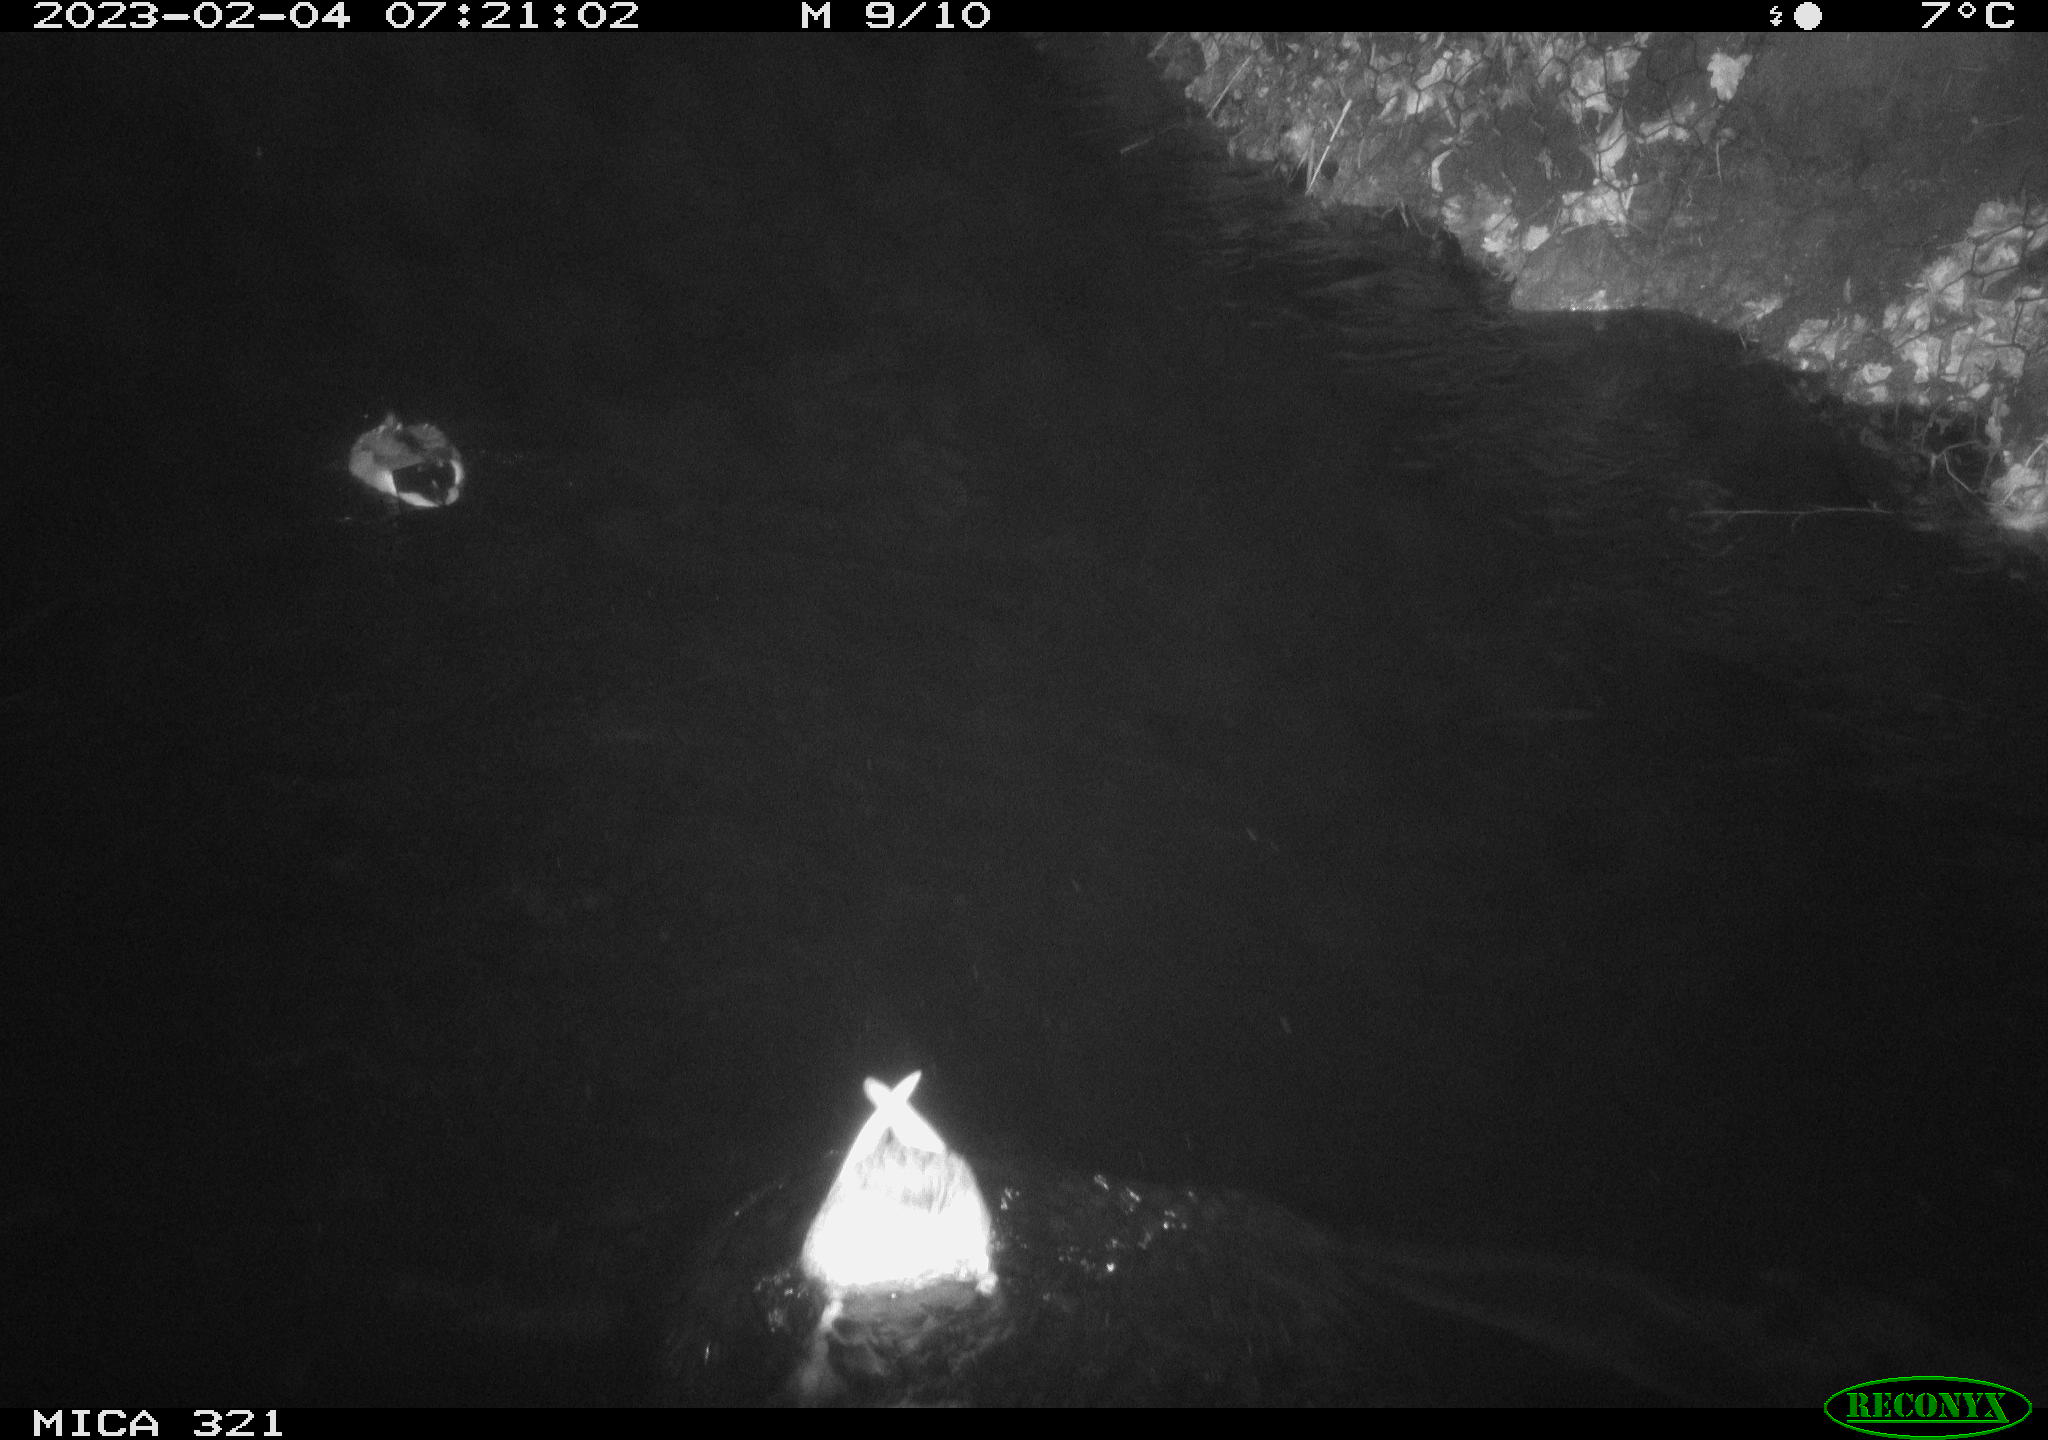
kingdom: Animalia
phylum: Chordata
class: Aves
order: Anseriformes
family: Anatidae
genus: Anas
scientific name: Anas
